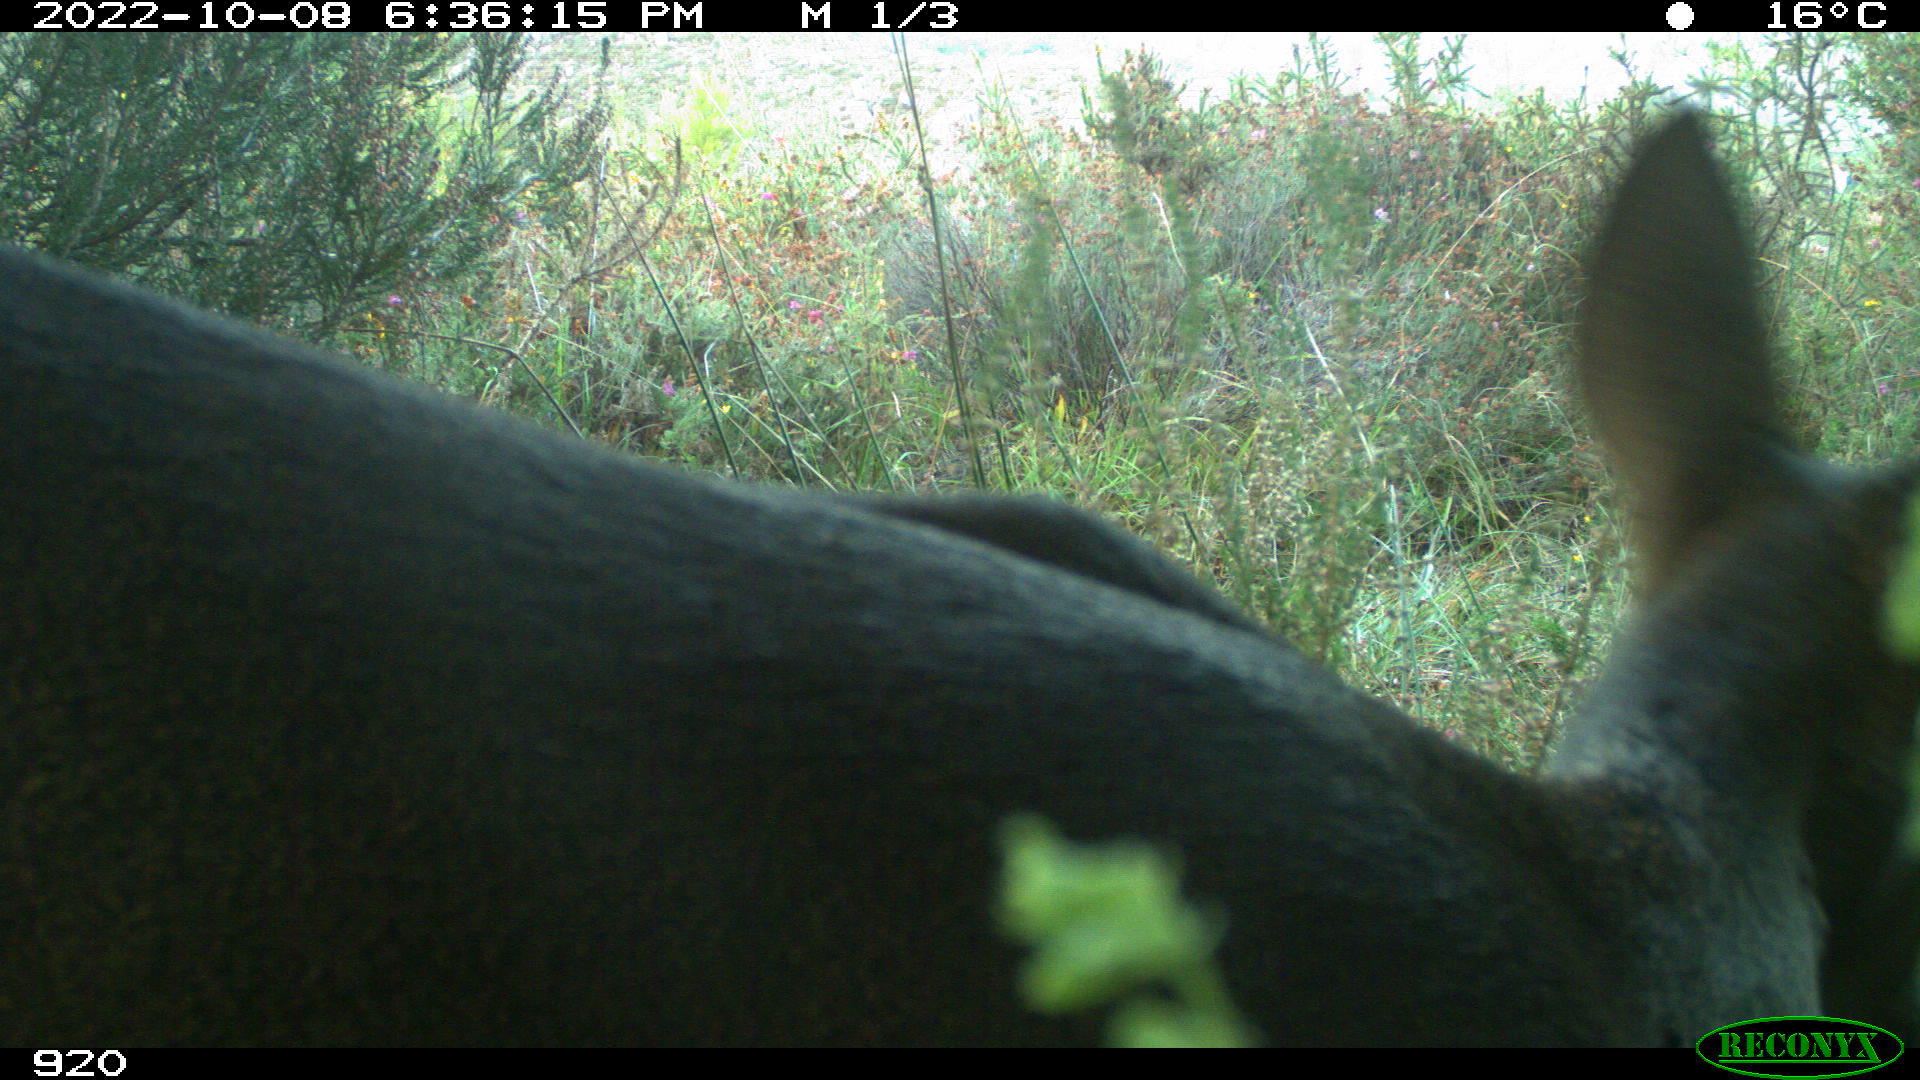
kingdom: Animalia
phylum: Chordata
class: Mammalia
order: Artiodactyla
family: Cervidae
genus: Capreolus
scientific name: Capreolus capreolus
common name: Western roe deer
